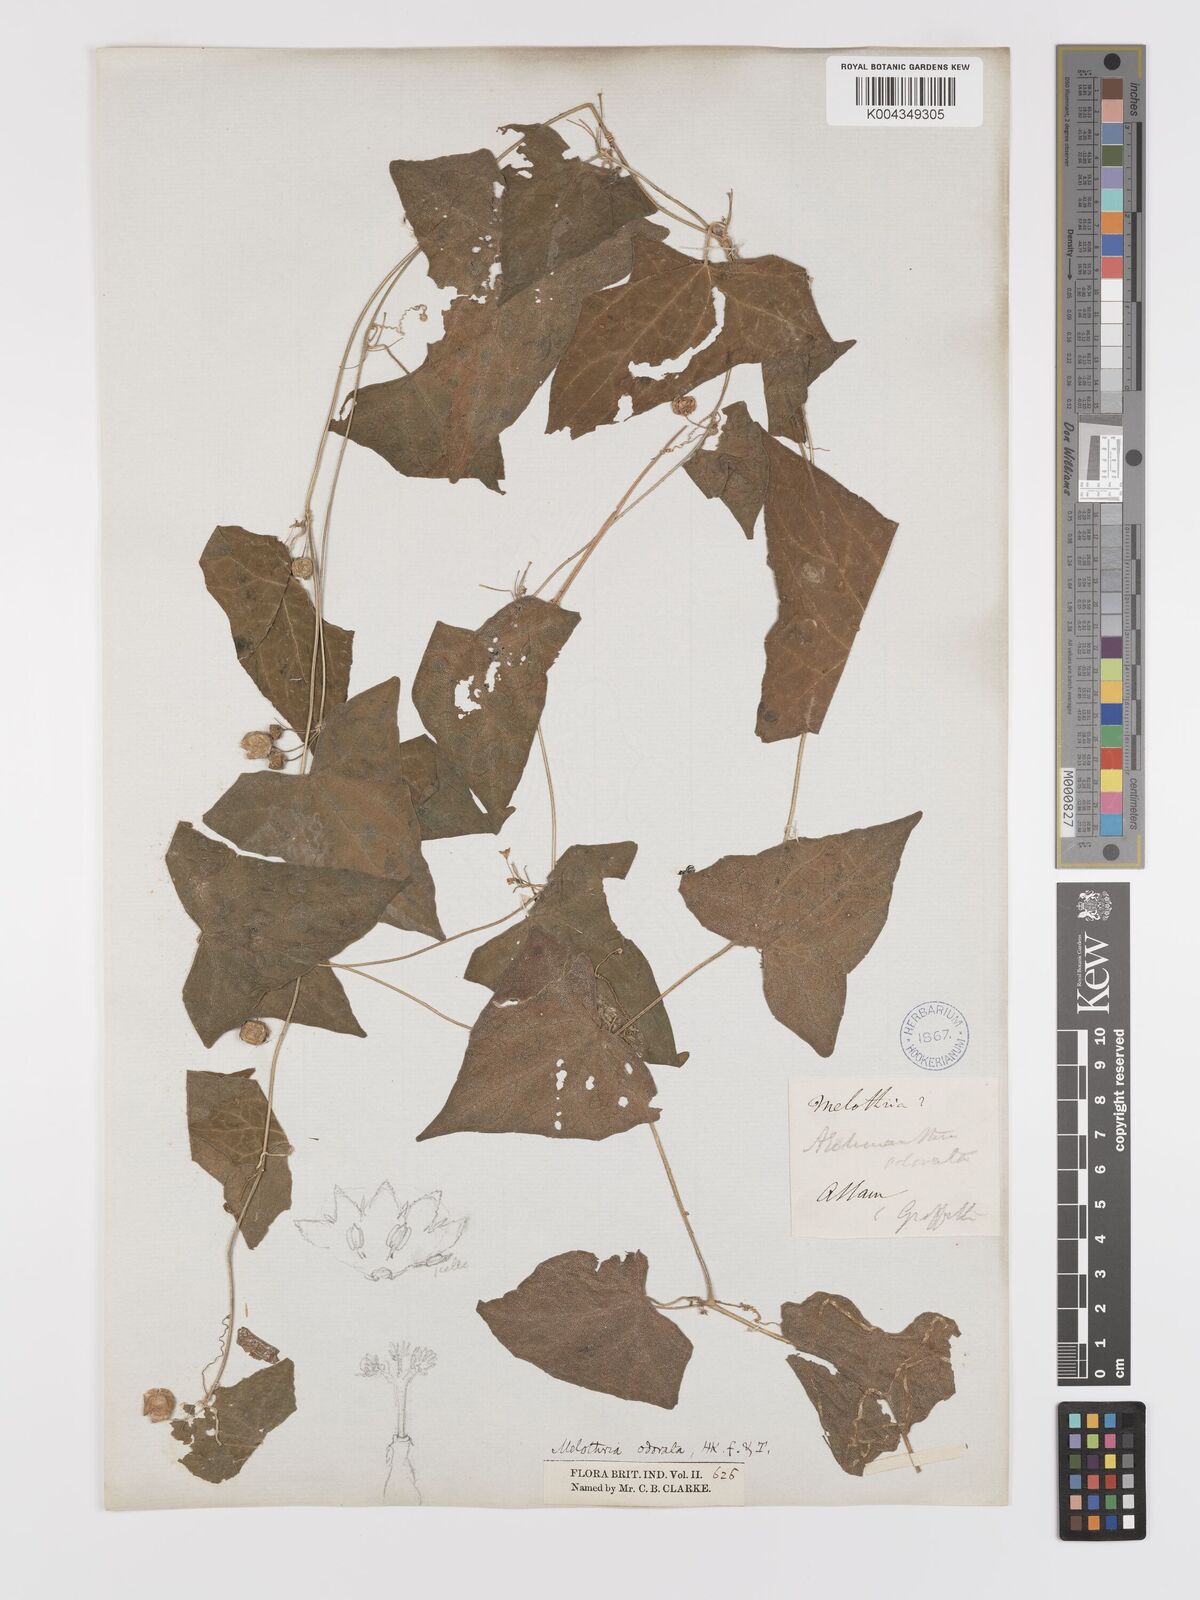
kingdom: Plantae
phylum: Tracheophyta
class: Magnoliopsida
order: Cucurbitales
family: Cucurbitaceae
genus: Zehneria
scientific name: Zehneria odorata
